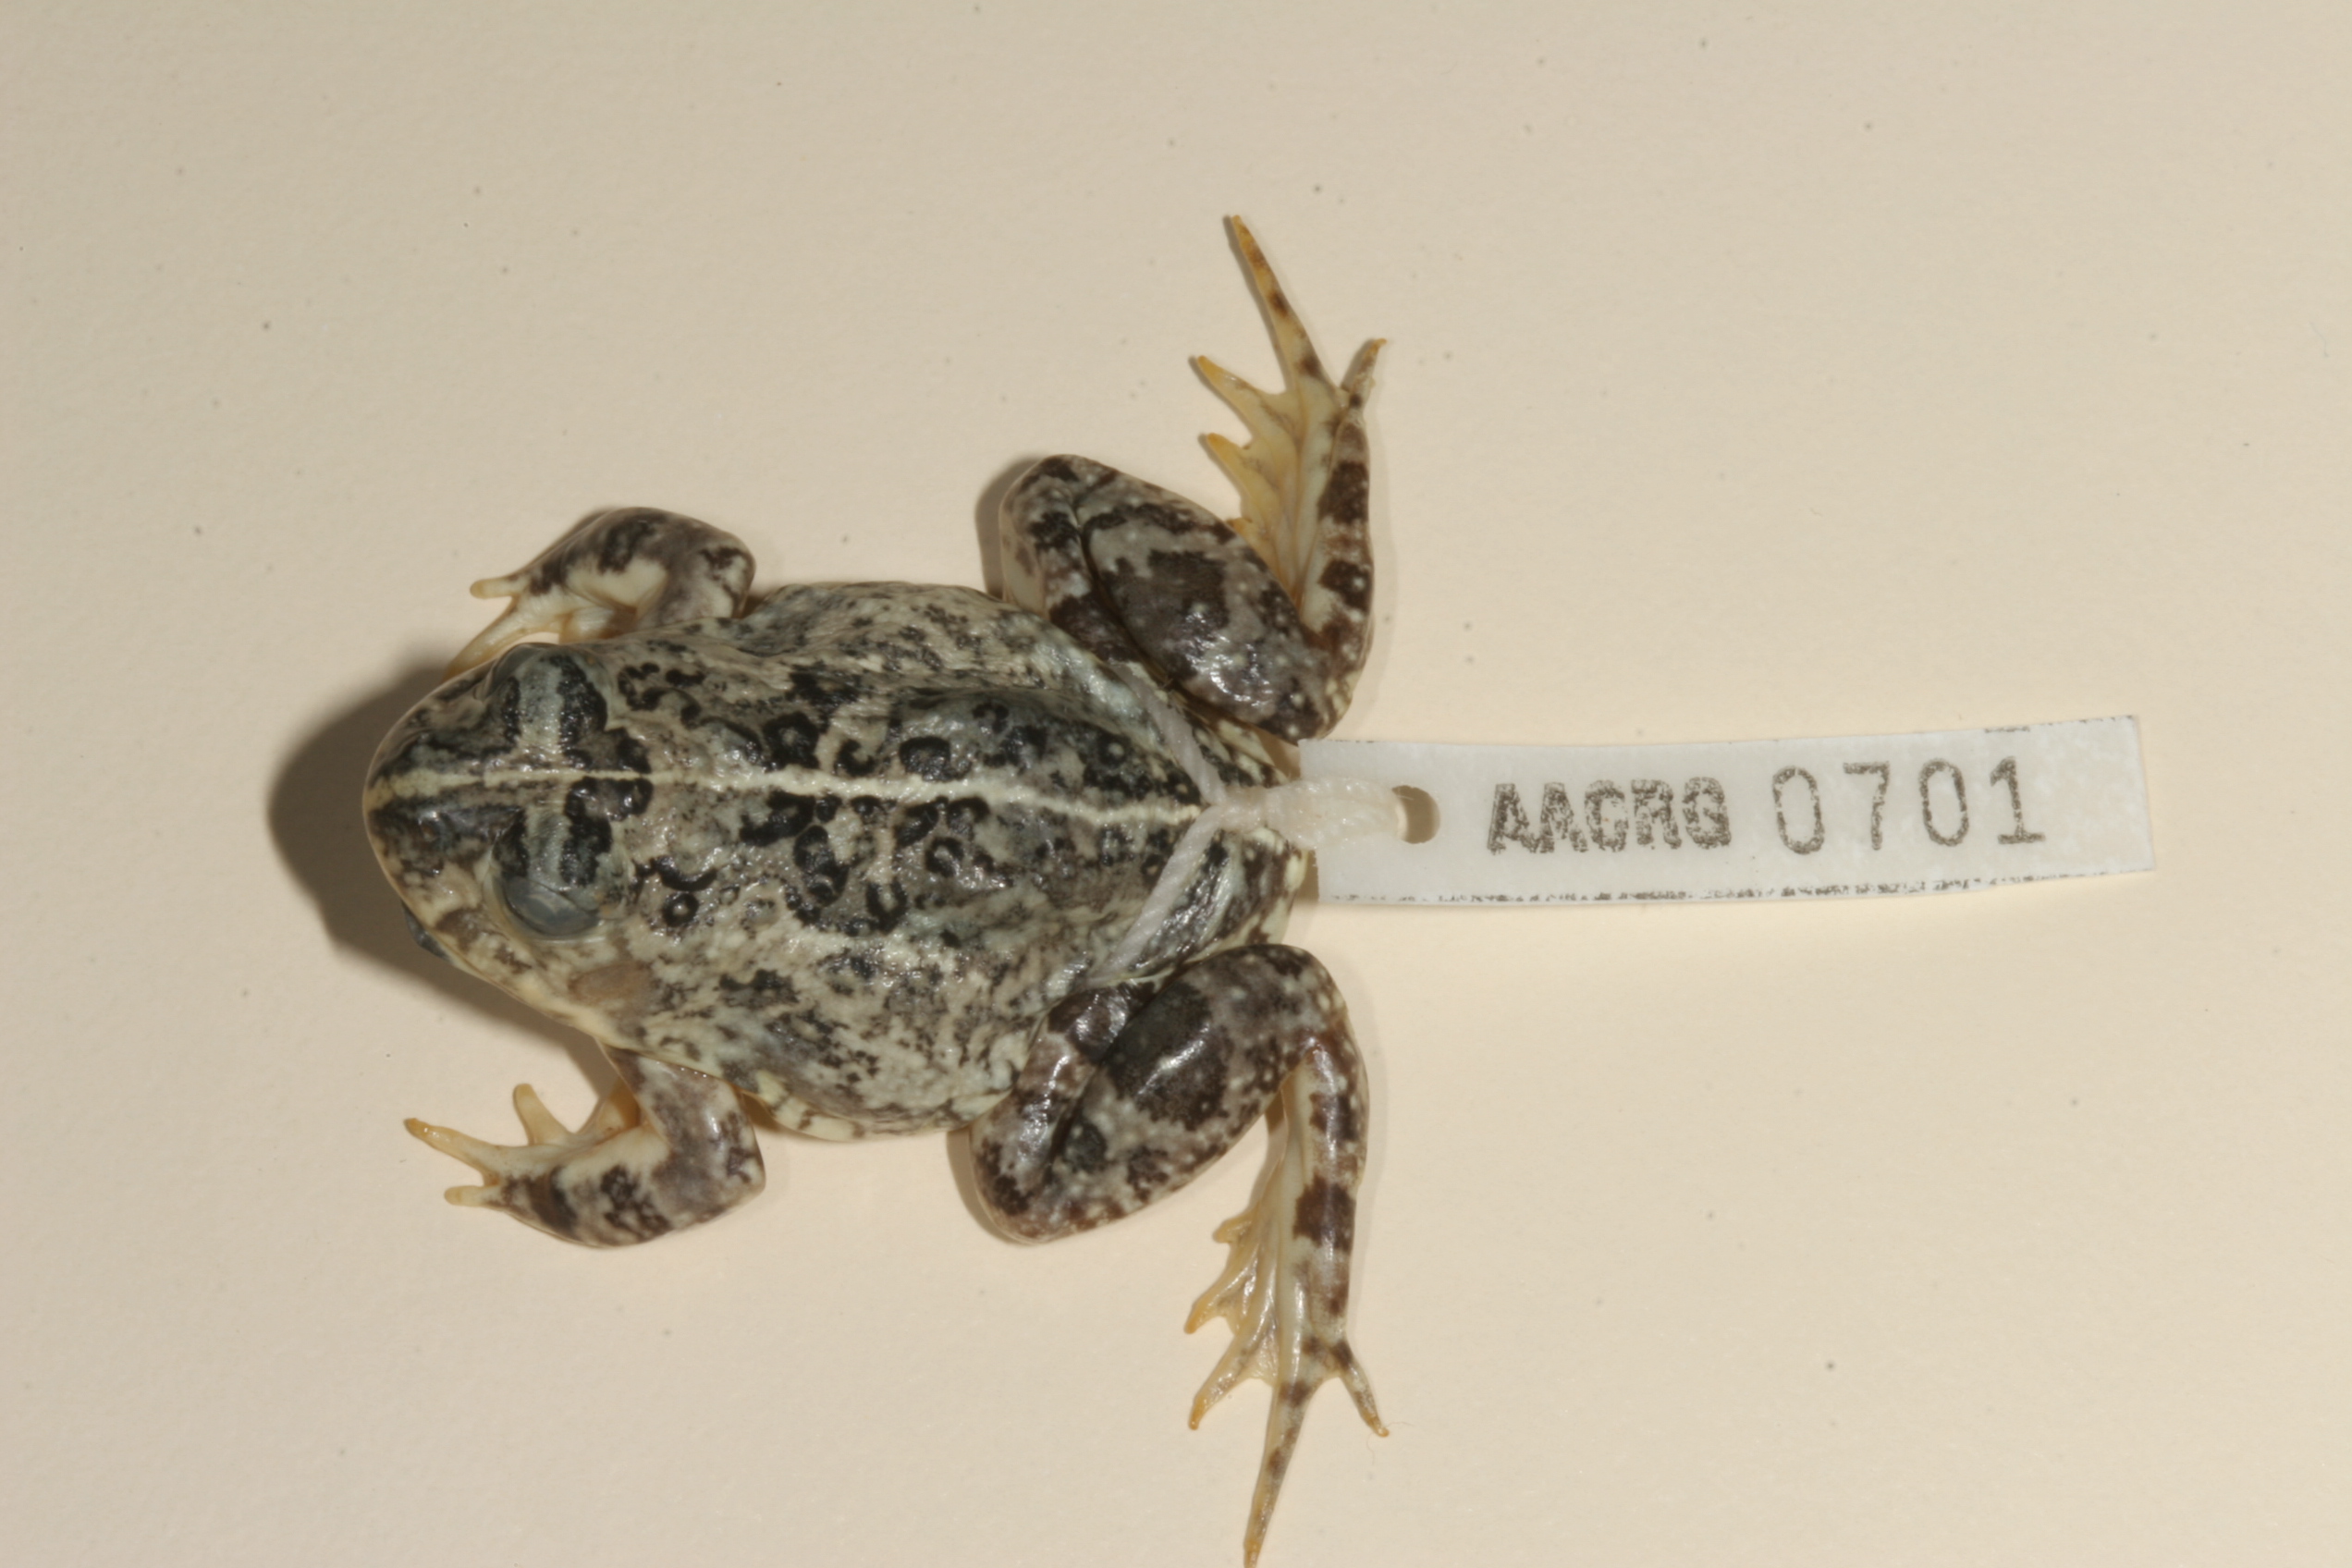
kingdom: Animalia
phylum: Chordata
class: Amphibia
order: Anura
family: Pyxicephalidae
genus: Tomopterna
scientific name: Tomopterna cryptotis
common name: Catequero bullfrog
